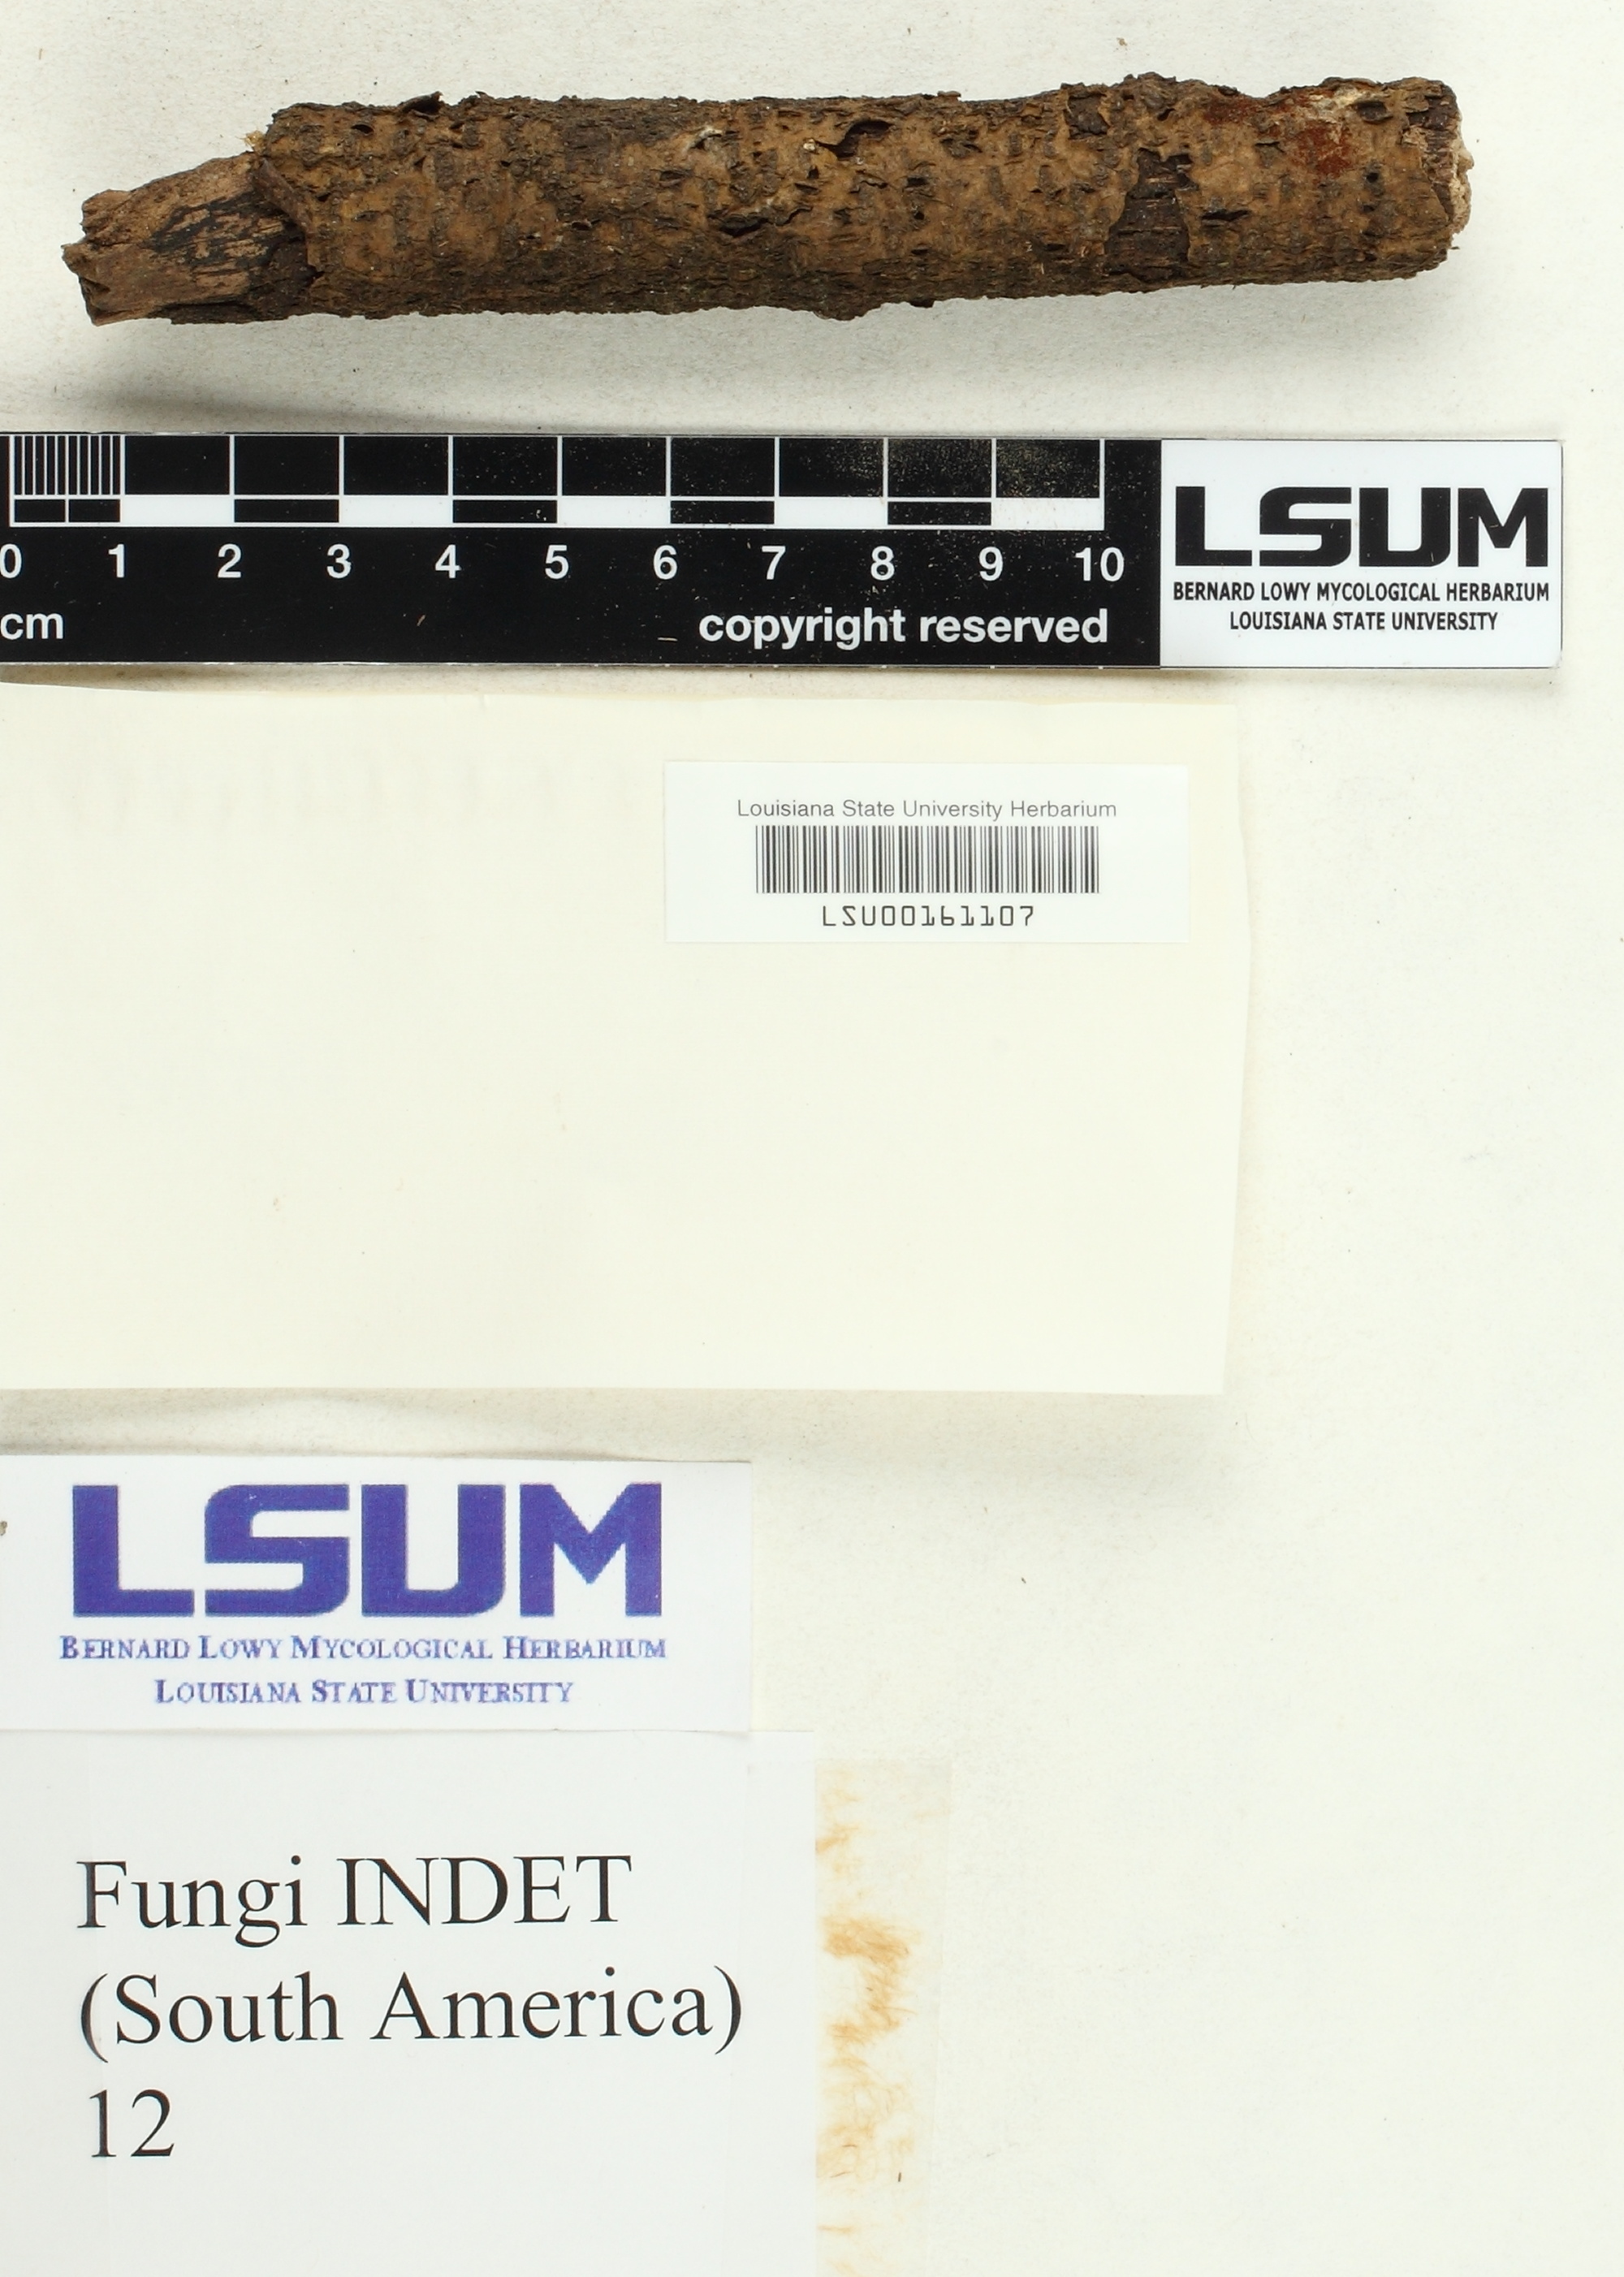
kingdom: Fungi
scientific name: Fungi
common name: Fungi
